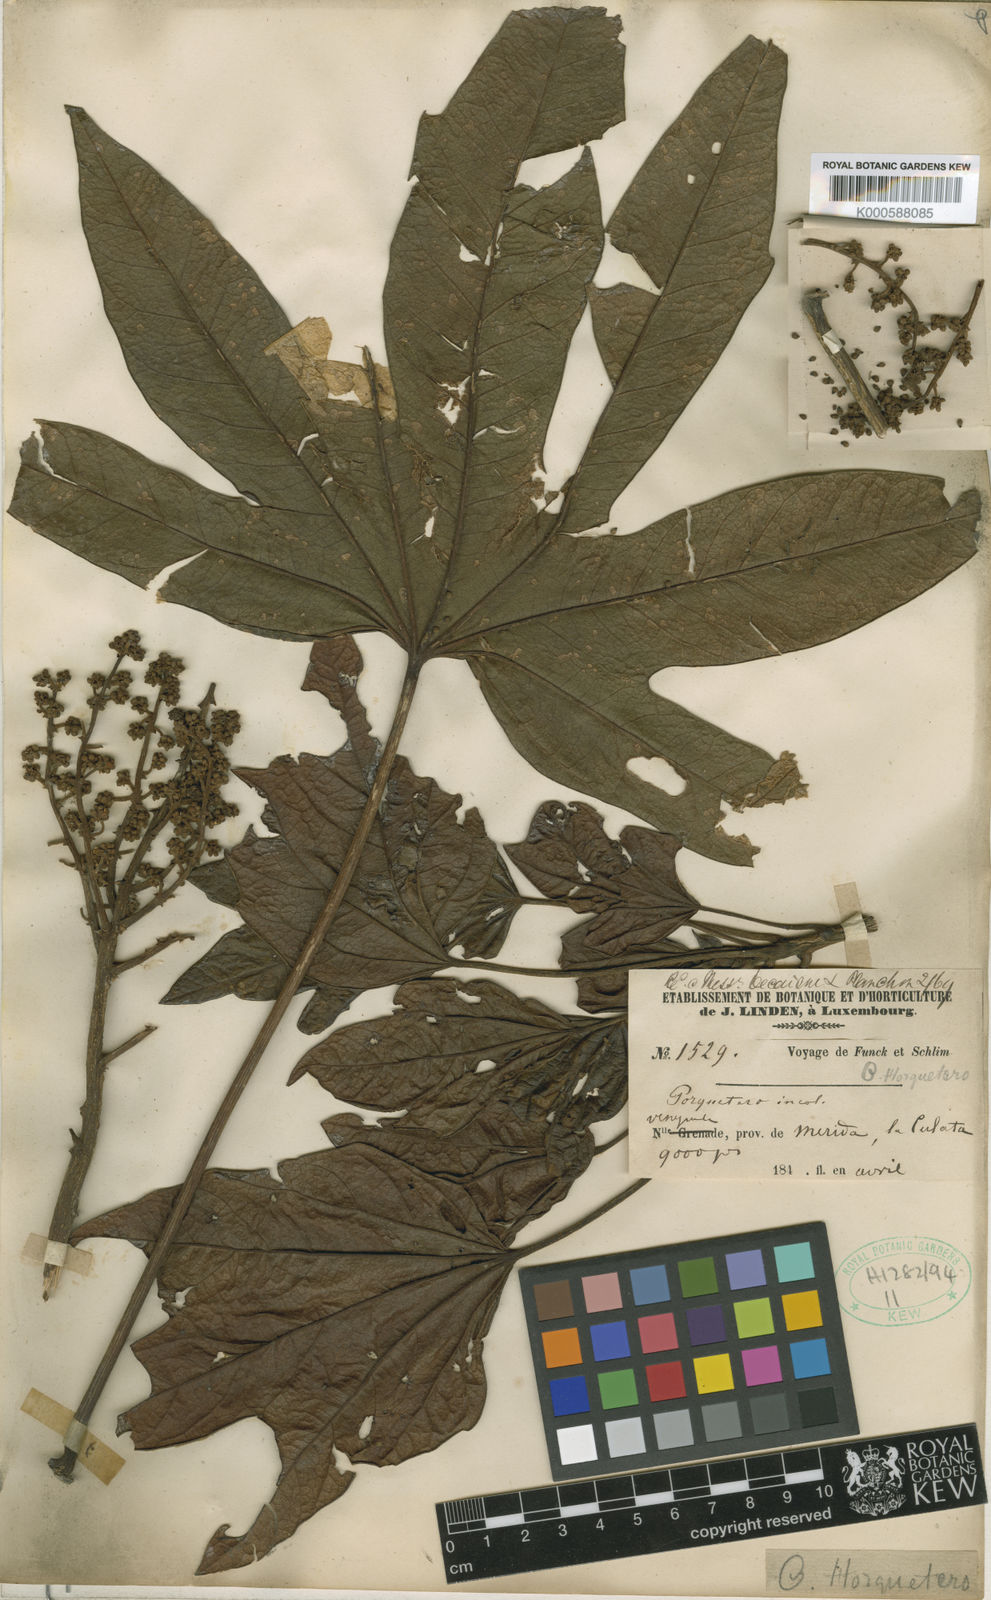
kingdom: Plantae
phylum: Tracheophyta
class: Magnoliopsida
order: Apiales
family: Araliaceae
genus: Oreopanax
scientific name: Oreopanax
